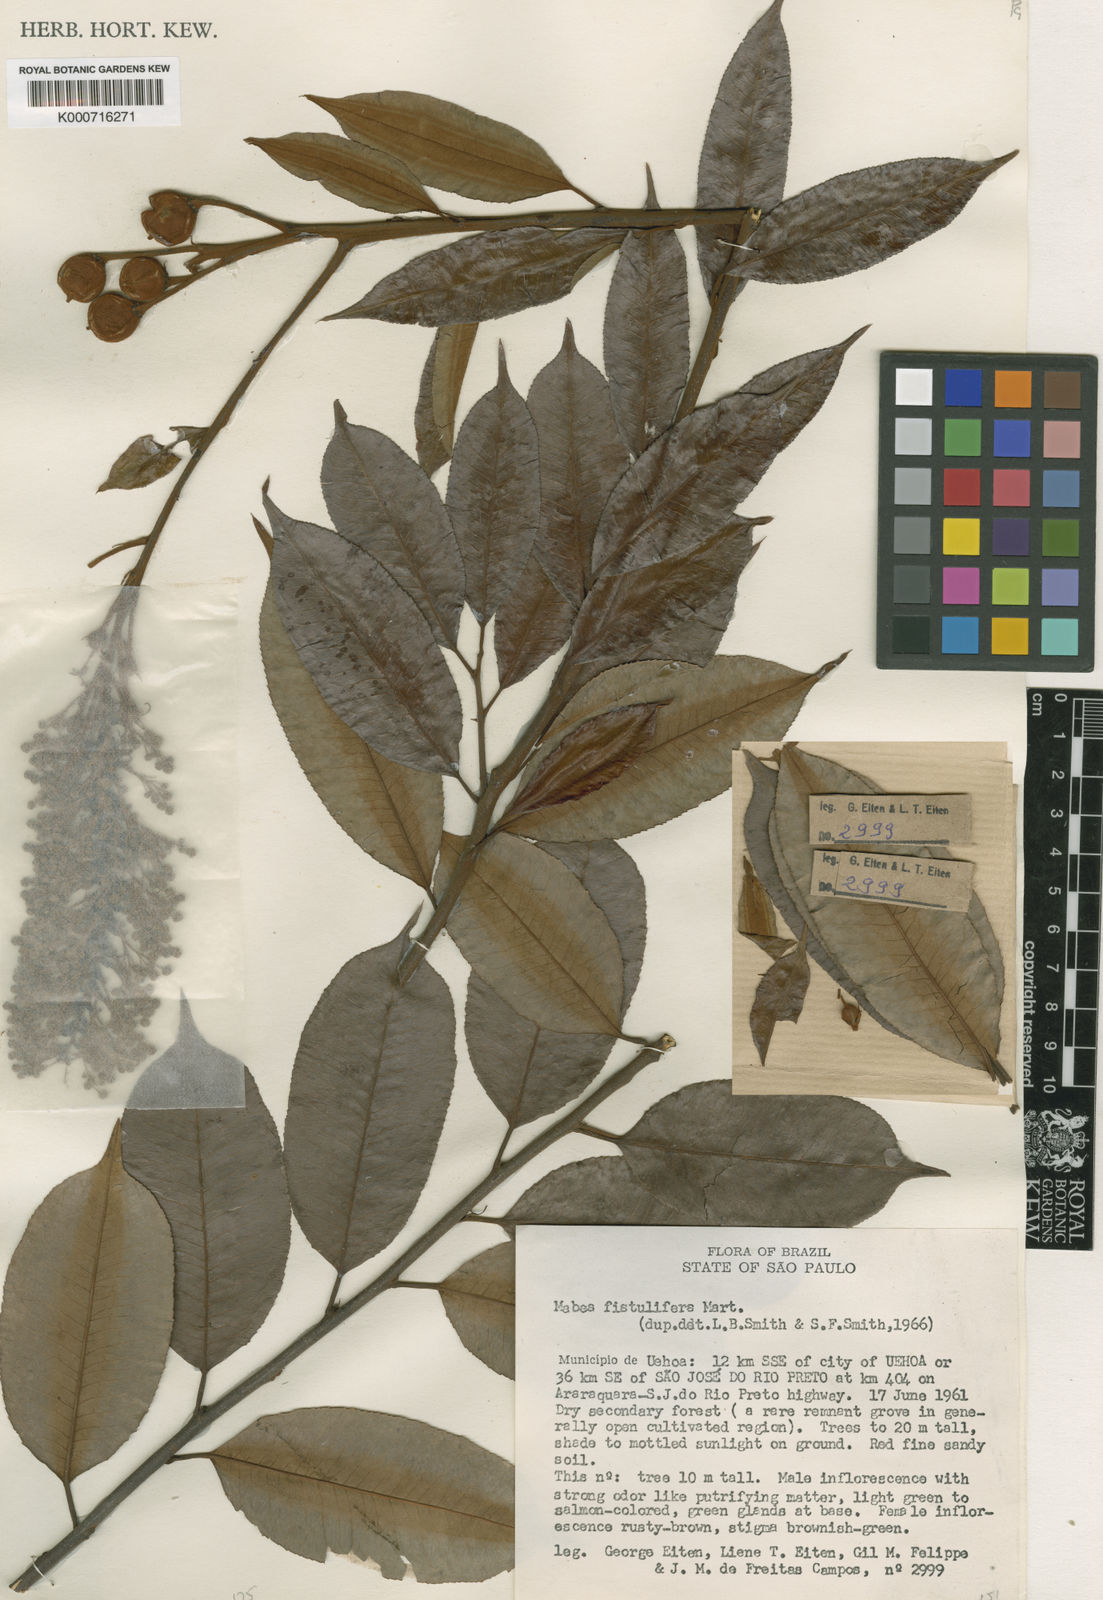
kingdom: Plantae
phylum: Tracheophyta
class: Magnoliopsida
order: Malpighiales
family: Euphorbiaceae
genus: Mabea
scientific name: Mabea fistulifera
